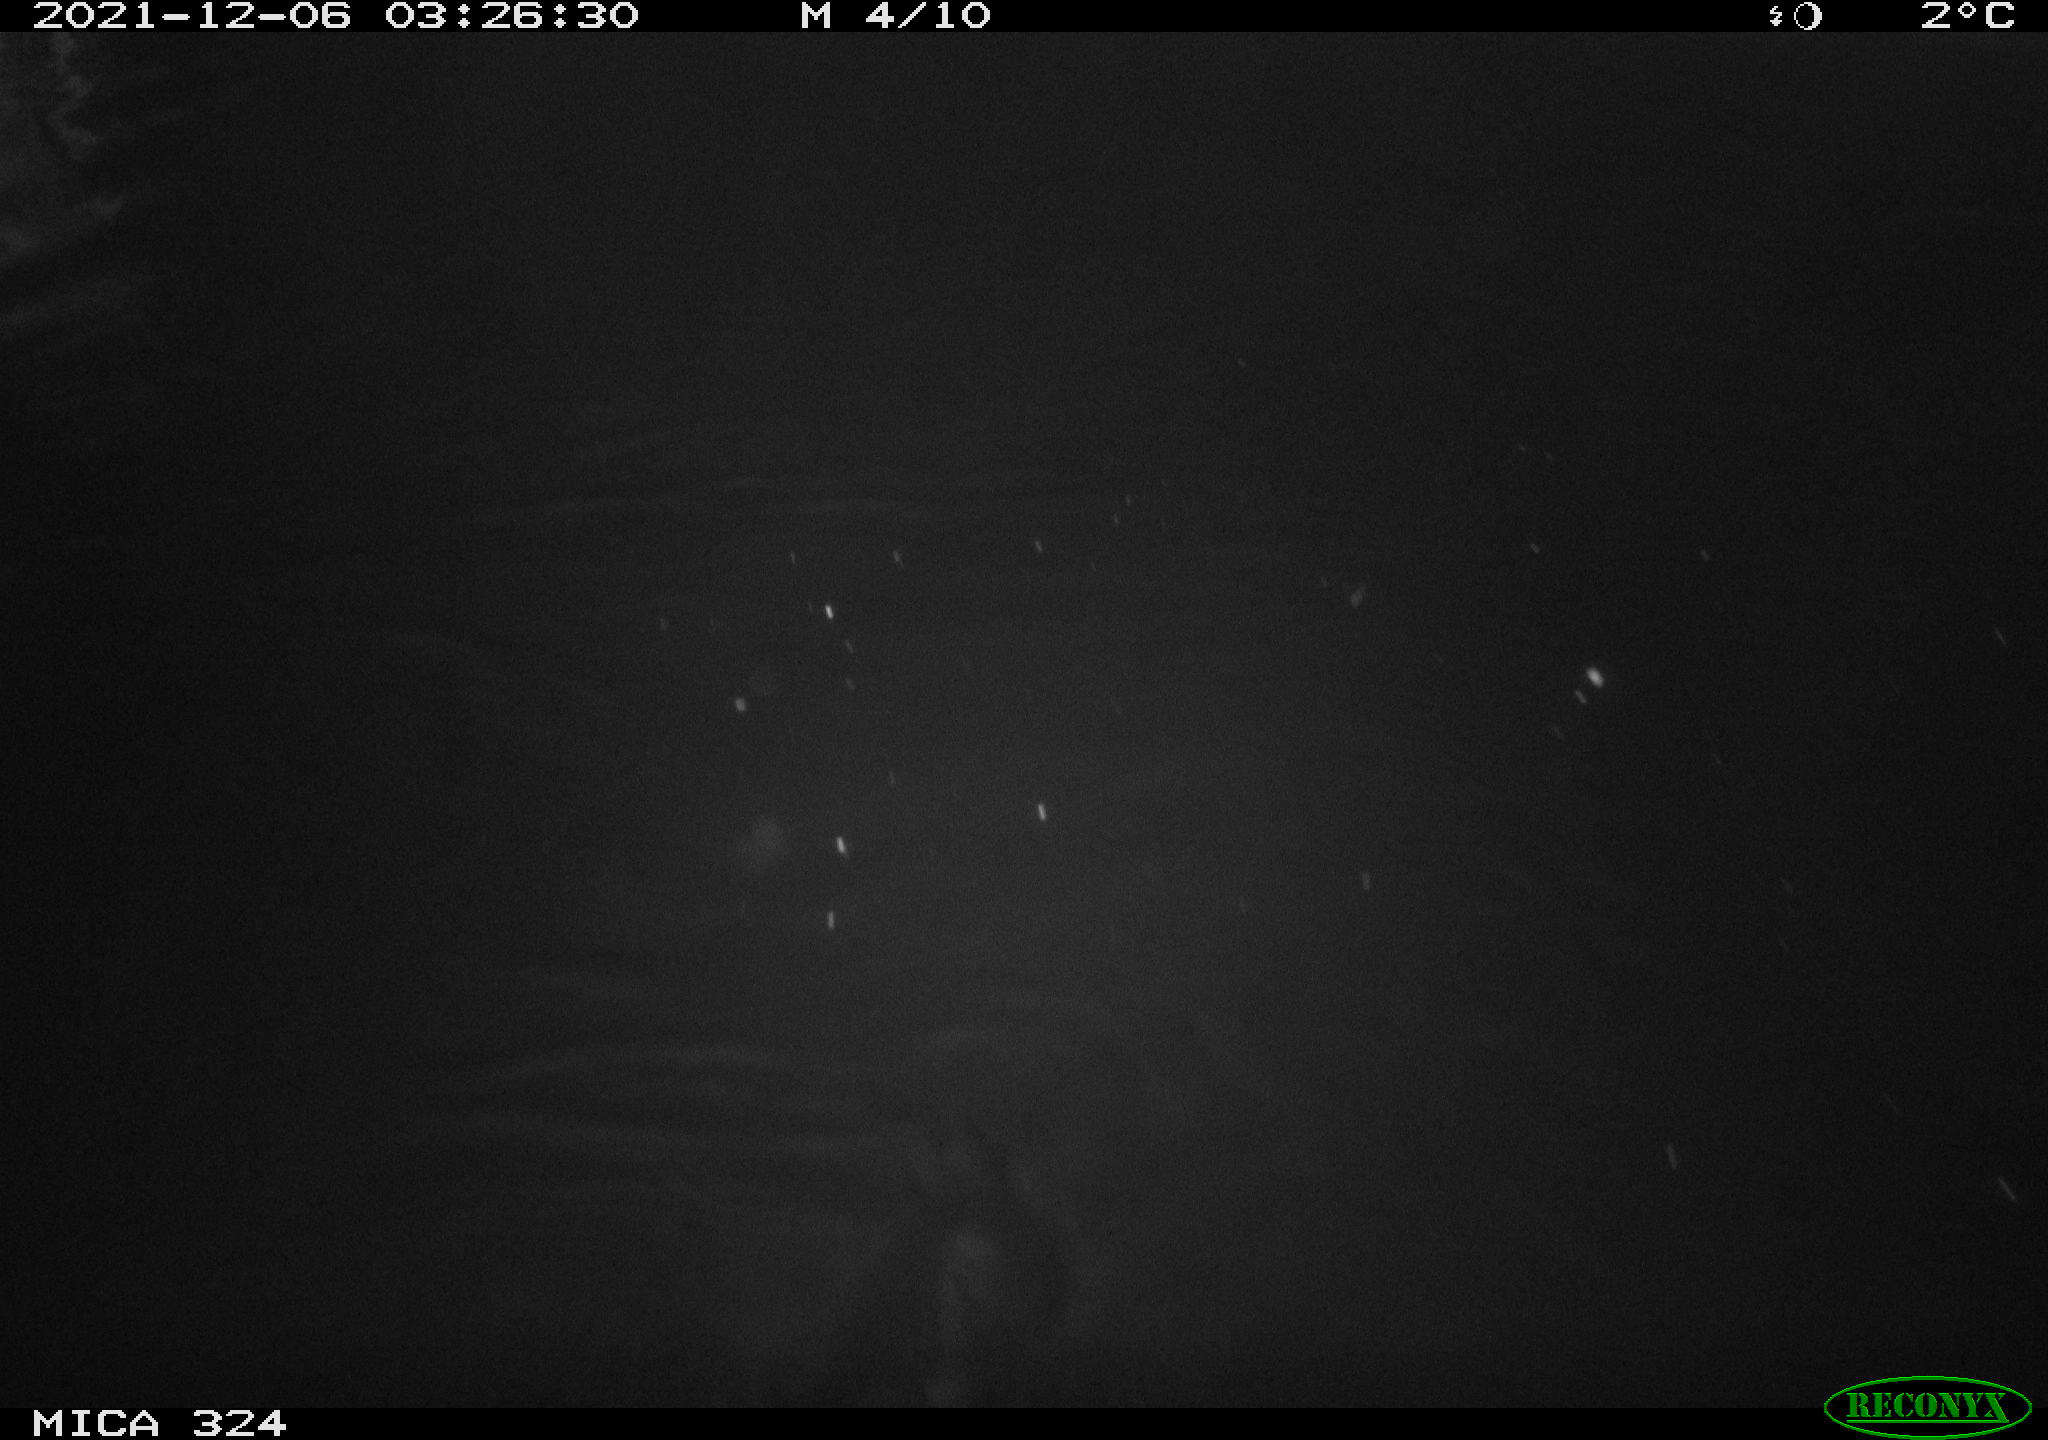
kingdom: Animalia
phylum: Chordata
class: Mammalia
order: Rodentia
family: Cricetidae
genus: Ondatra
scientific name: Ondatra zibethicus
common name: Muskrat
